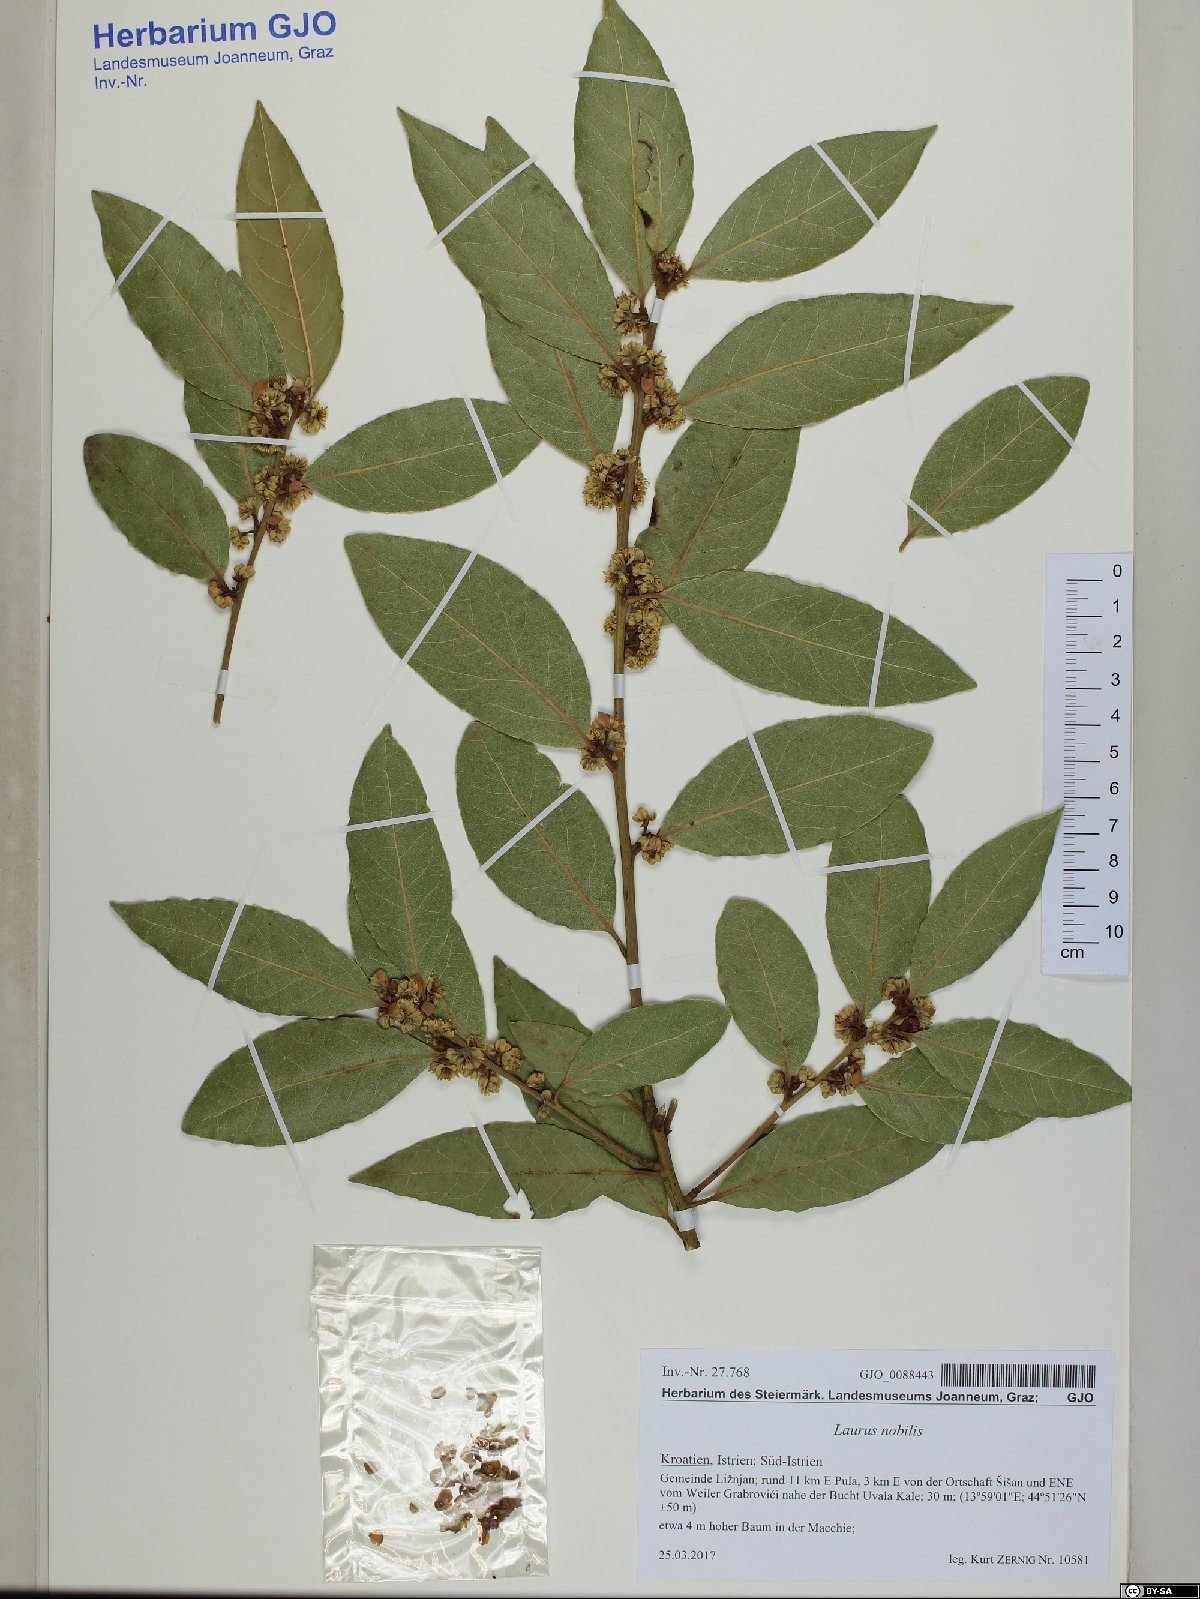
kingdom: Plantae
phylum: Tracheophyta
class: Magnoliopsida
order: Laurales
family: Lauraceae
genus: Laurus
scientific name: Laurus nobilis
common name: Bay
